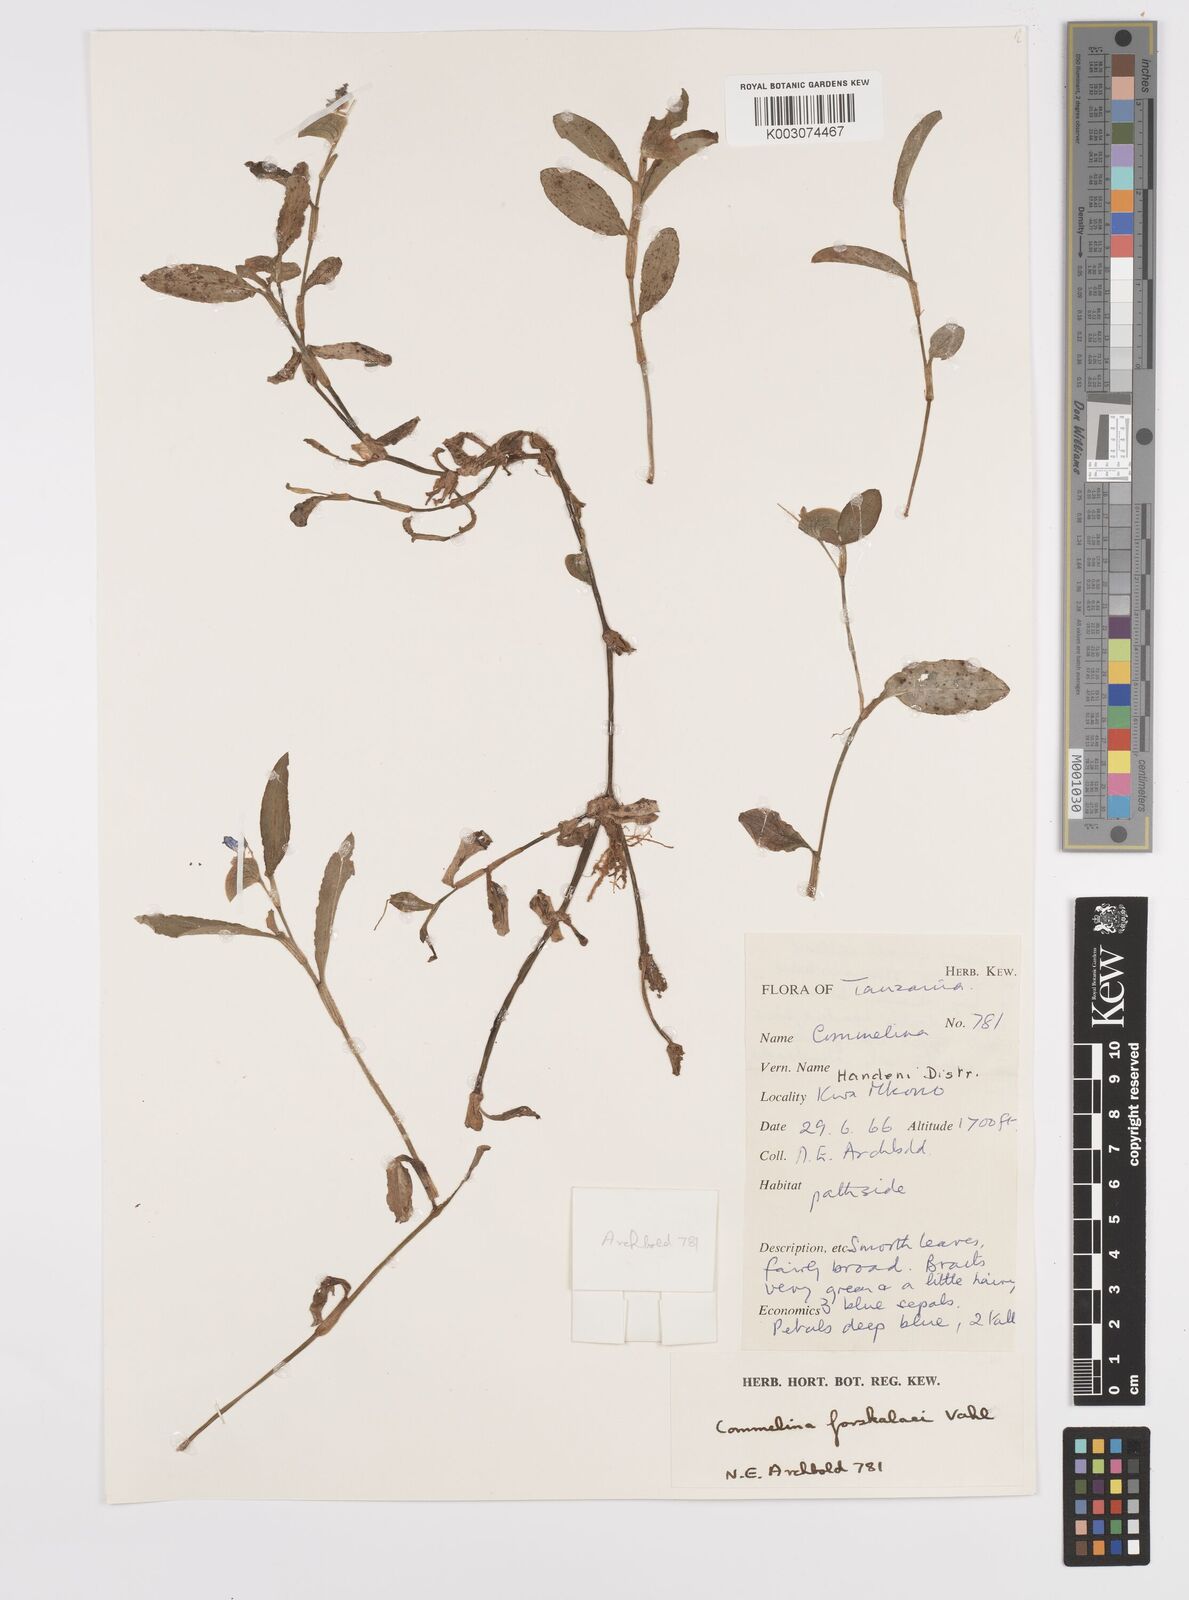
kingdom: Plantae
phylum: Tracheophyta
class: Liliopsida
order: Commelinales
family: Commelinaceae
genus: Commelina
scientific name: Commelina forskaolii
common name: Rat's ear
